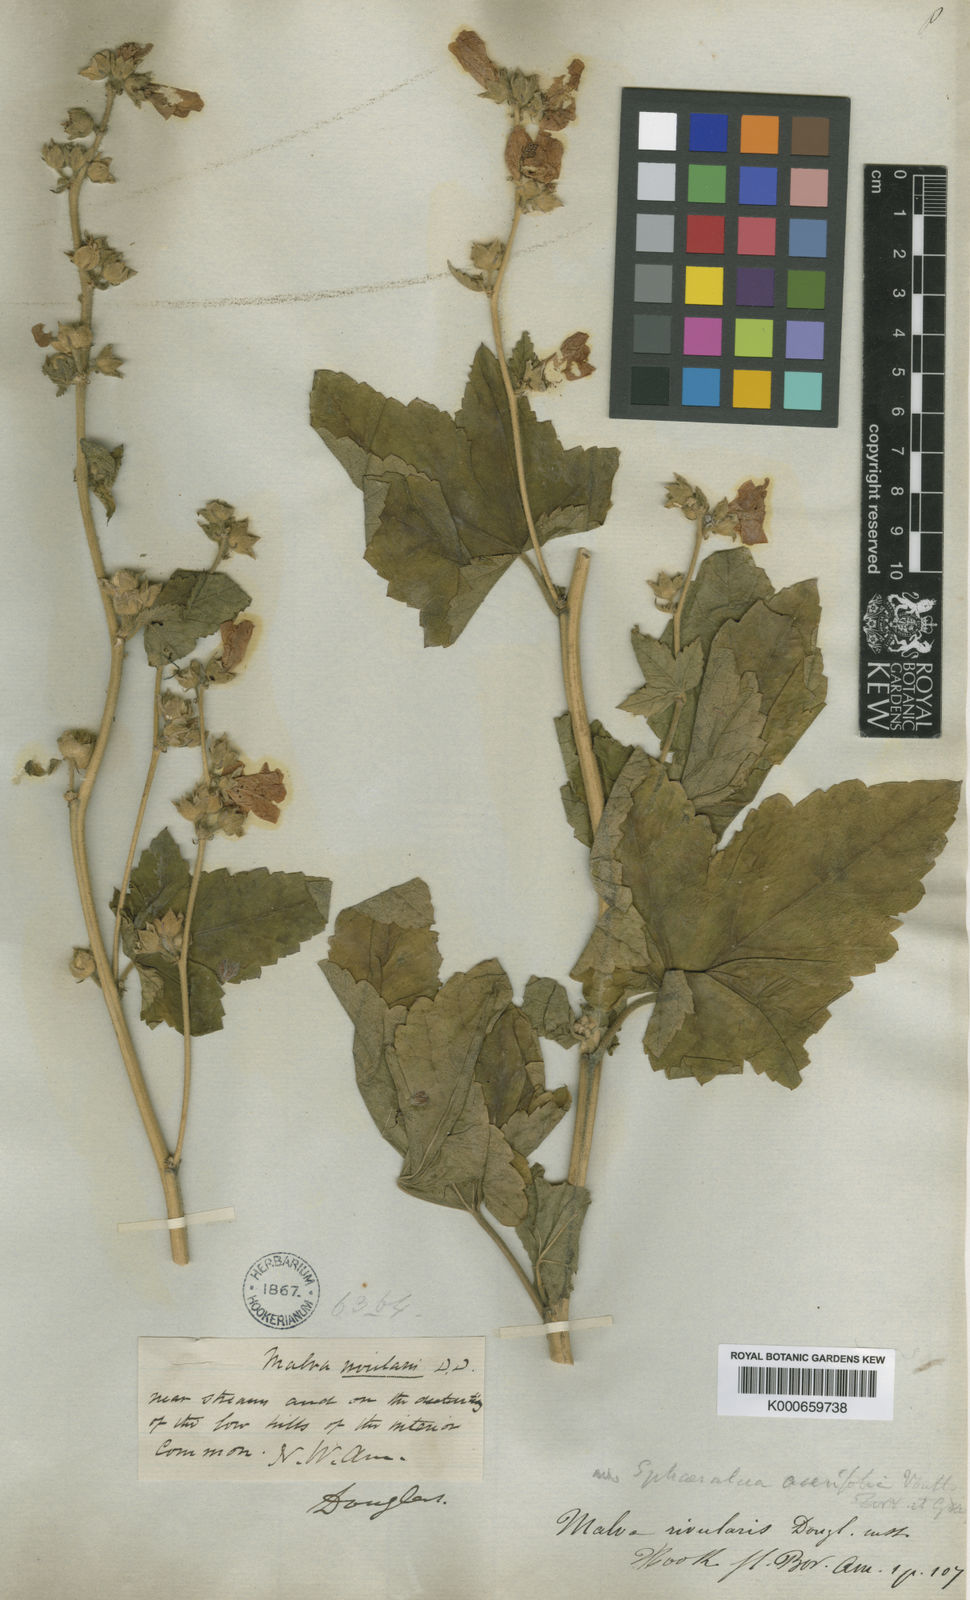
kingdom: Plantae
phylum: Tracheophyta
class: Magnoliopsida
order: Malvales
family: Malvaceae
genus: Sphaeralcea
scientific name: Sphaeralcea
